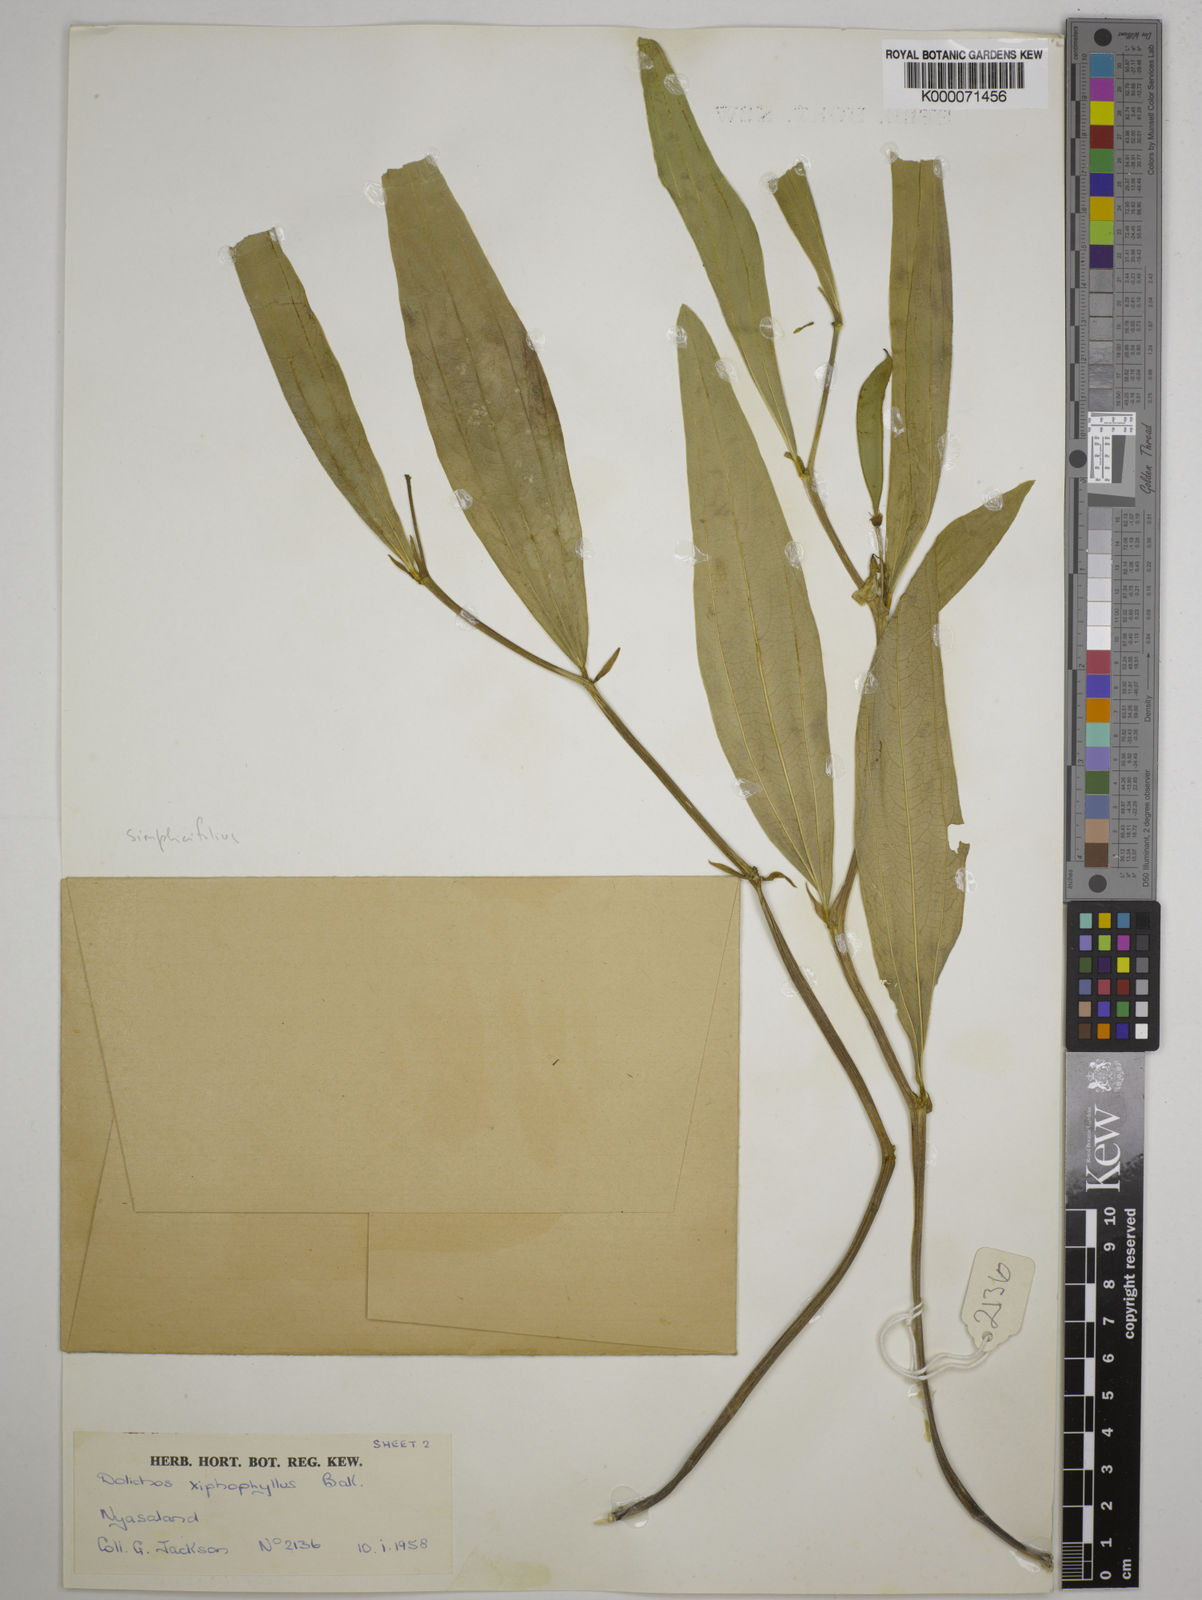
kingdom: Plantae
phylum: Tracheophyta
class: Magnoliopsida
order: Fabales
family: Fabaceae
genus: Dolichos
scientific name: Dolichos simplicifolius
